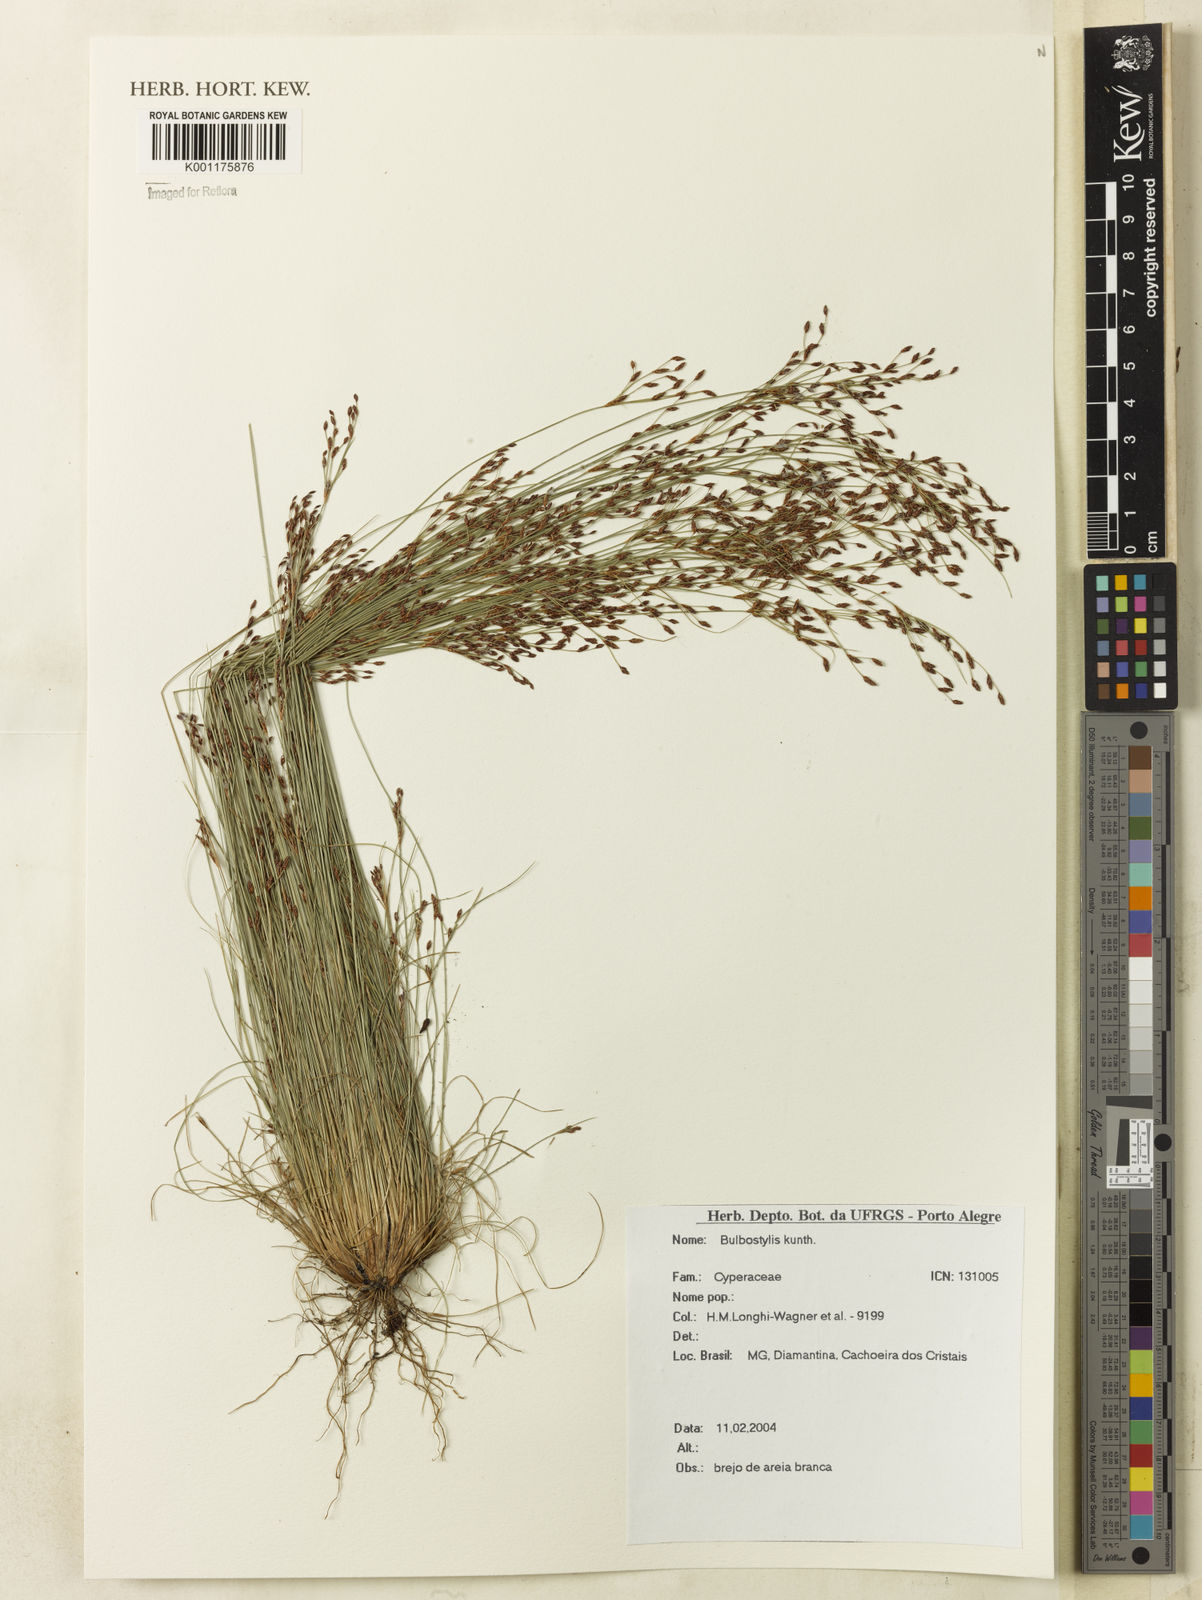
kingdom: Plantae
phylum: Tracheophyta
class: Liliopsida
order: Poales
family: Cyperaceae
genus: Bulbostylis
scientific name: Bulbostylis
